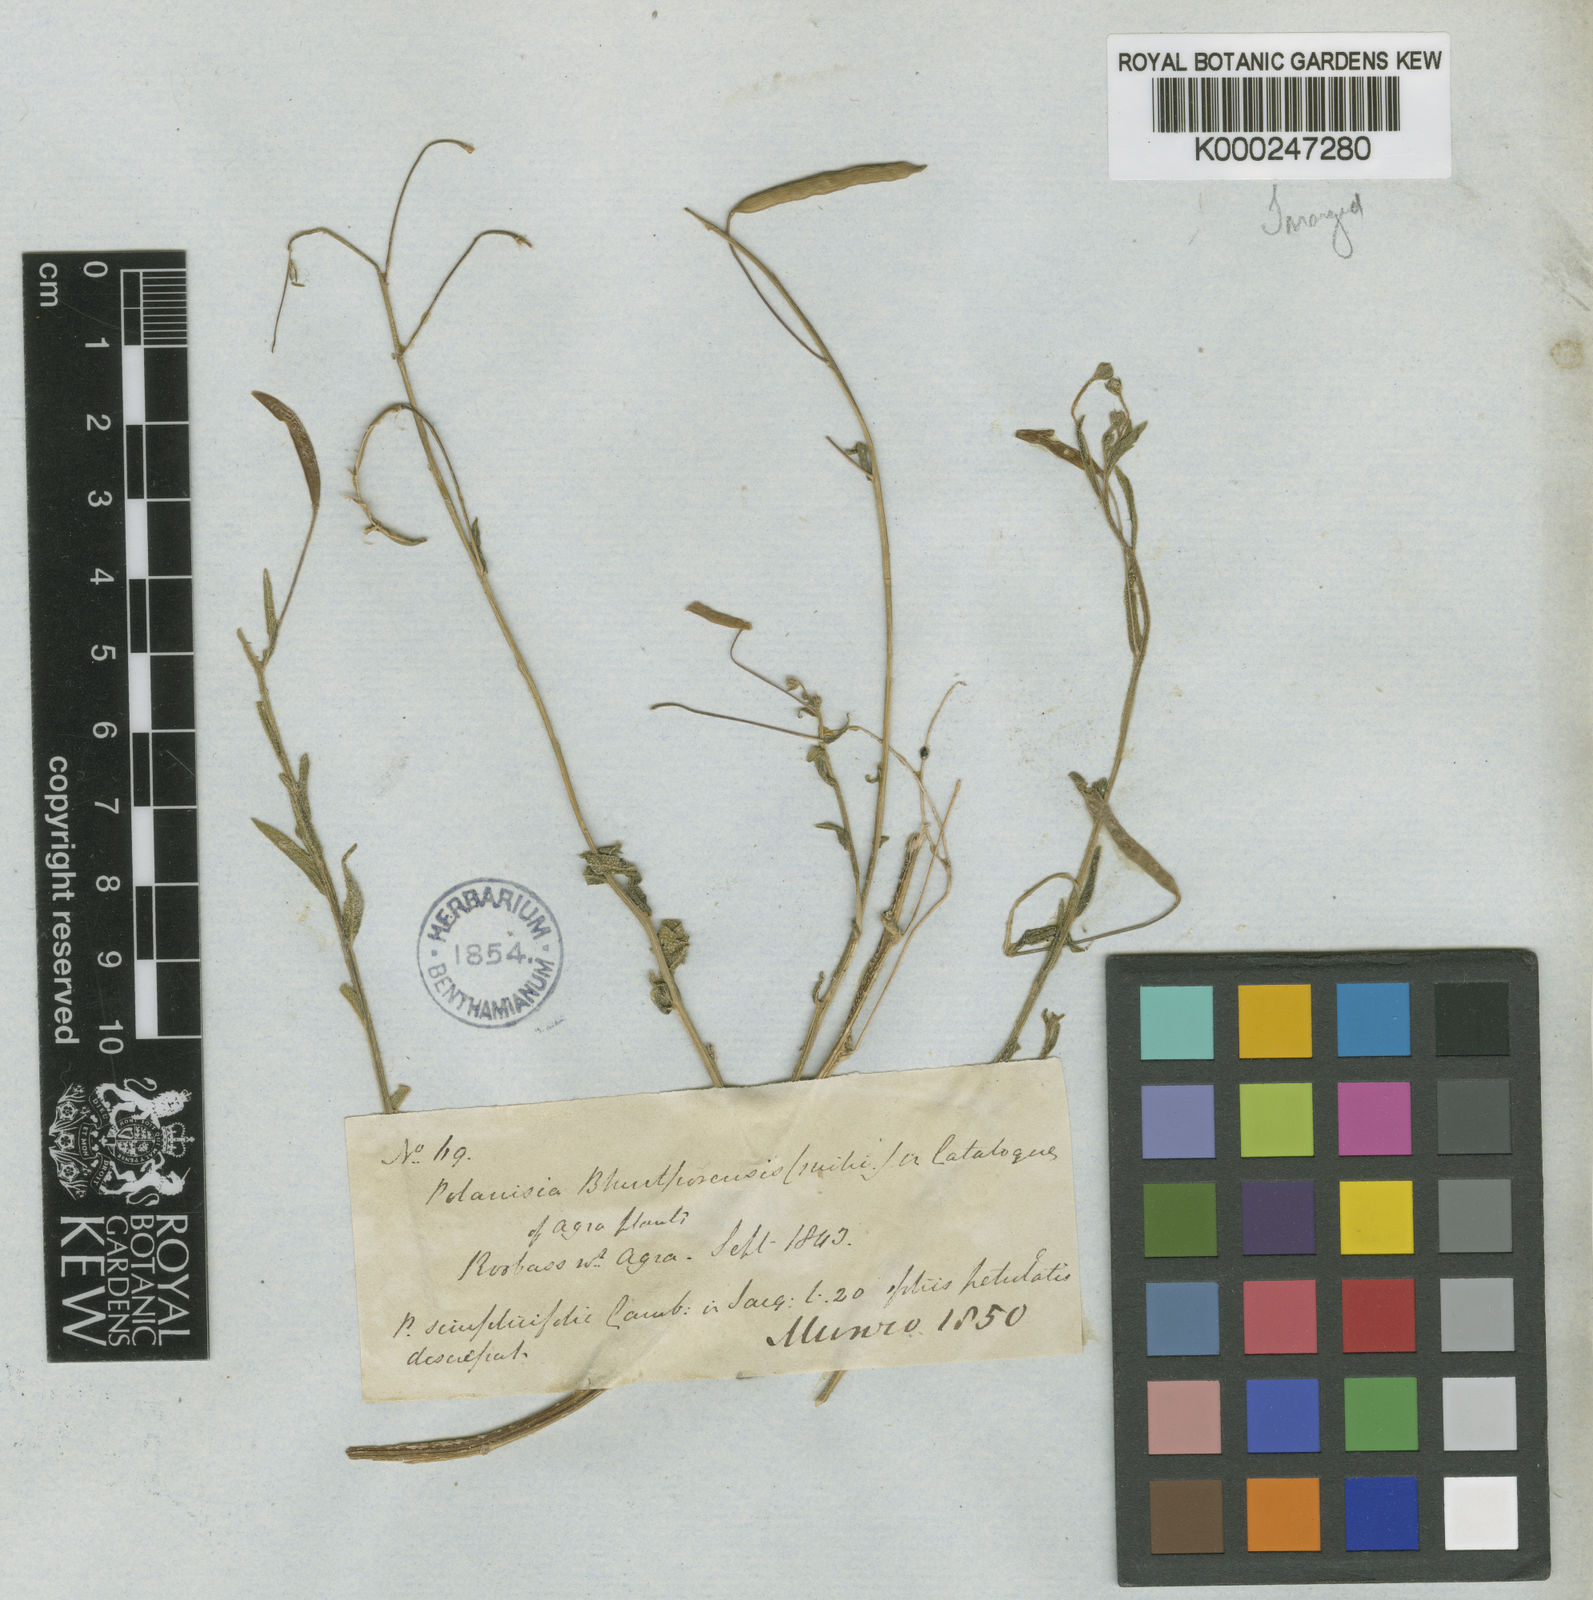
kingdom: Plantae
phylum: Tracheophyta
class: Magnoliopsida
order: Brassicales
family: Cleomaceae
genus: Corynandra
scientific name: Corynandra simplicifolia
